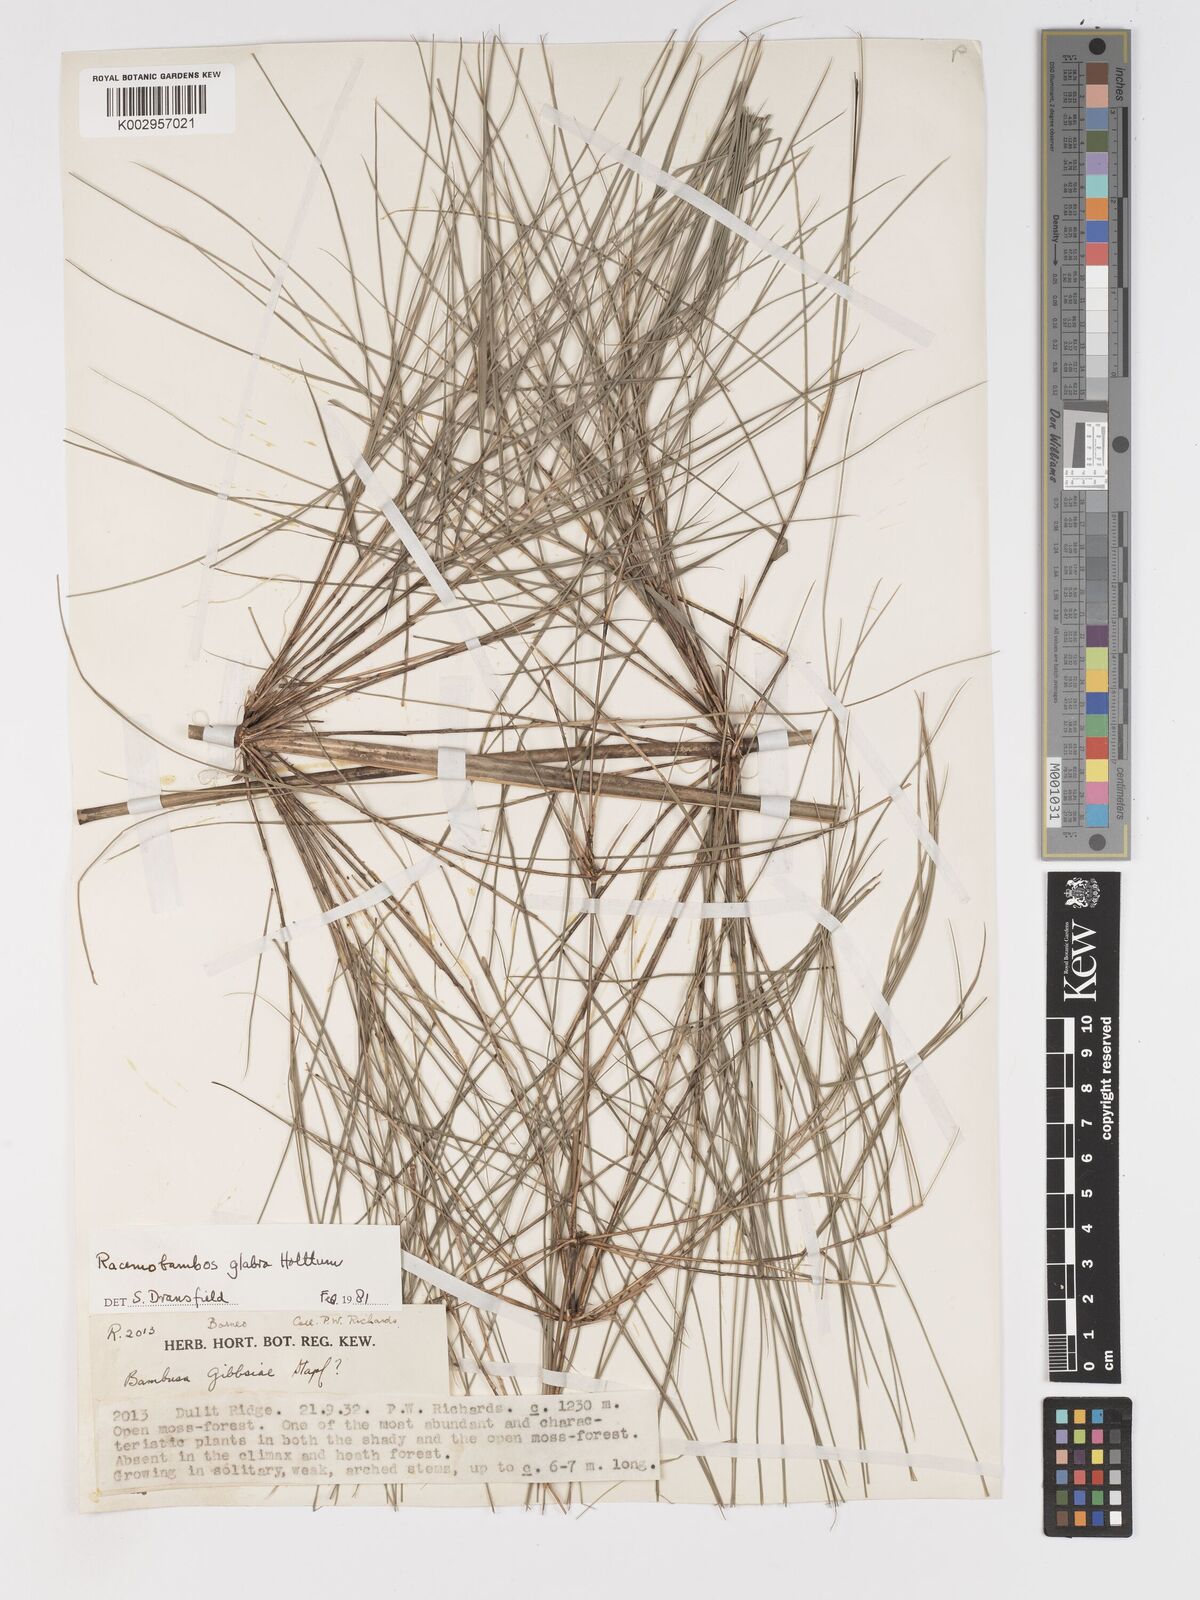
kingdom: Plantae
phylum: Tracheophyta
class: Liliopsida
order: Poales
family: Poaceae
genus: Racemobambos
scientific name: Racemobambos
